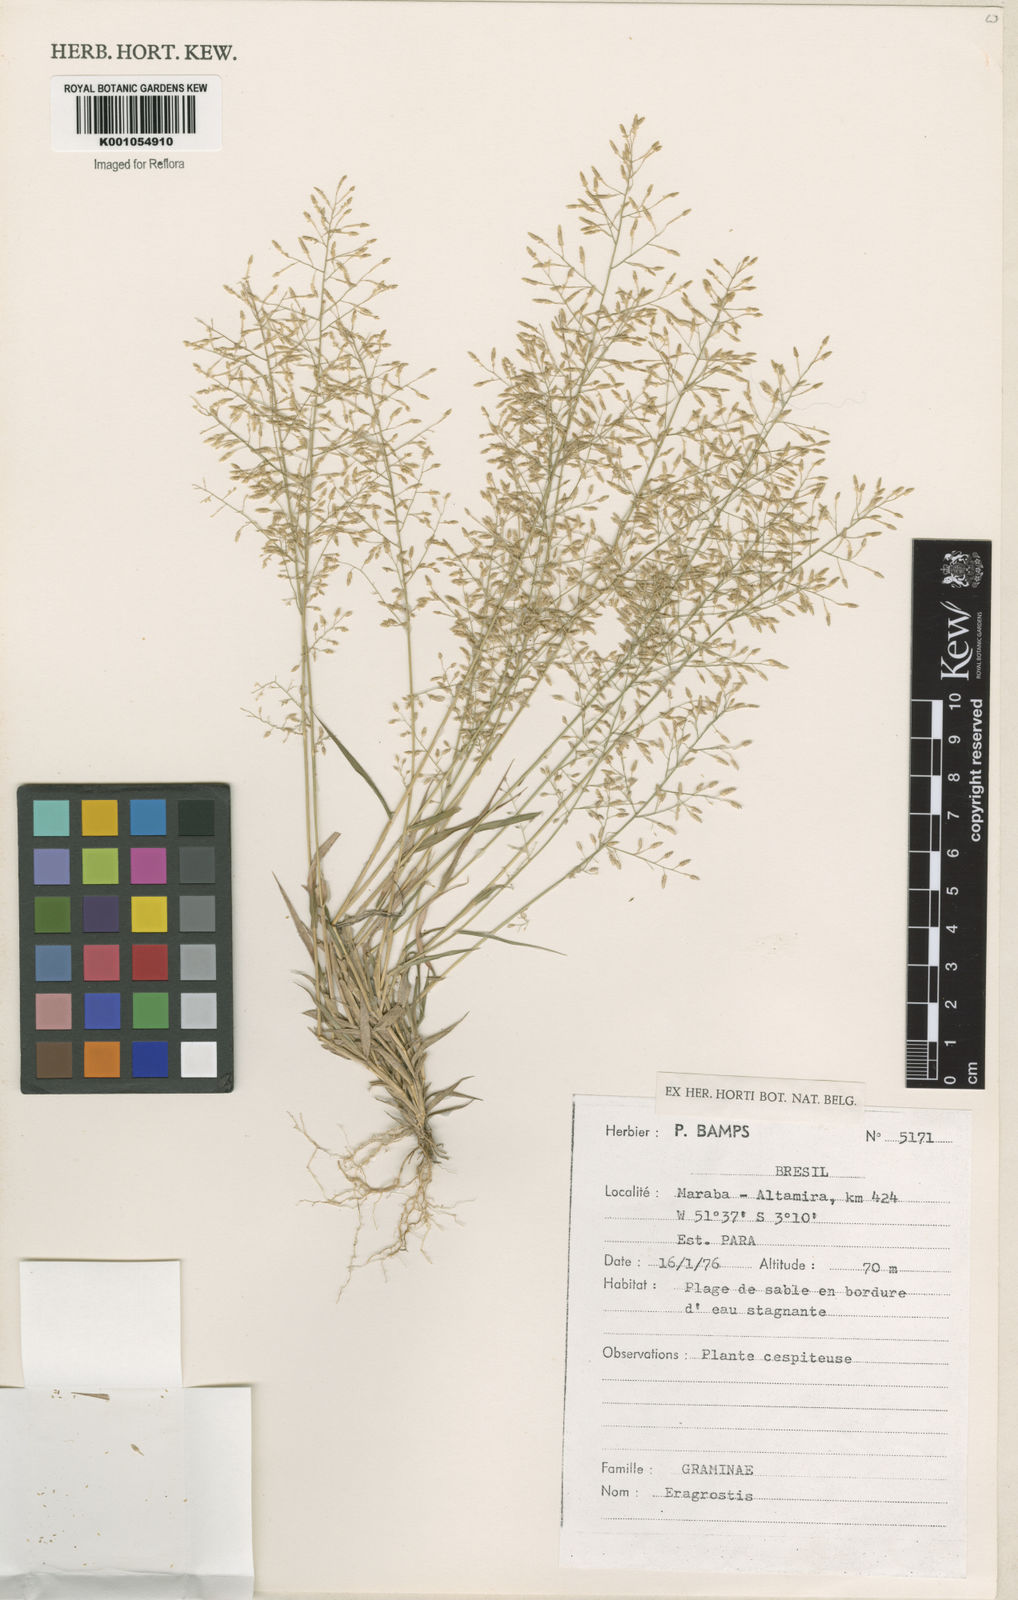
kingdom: Plantae
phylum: Tracheophyta
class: Liliopsida
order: Poales
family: Poaceae
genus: Eragrostis
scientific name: Eragrostis articulata
